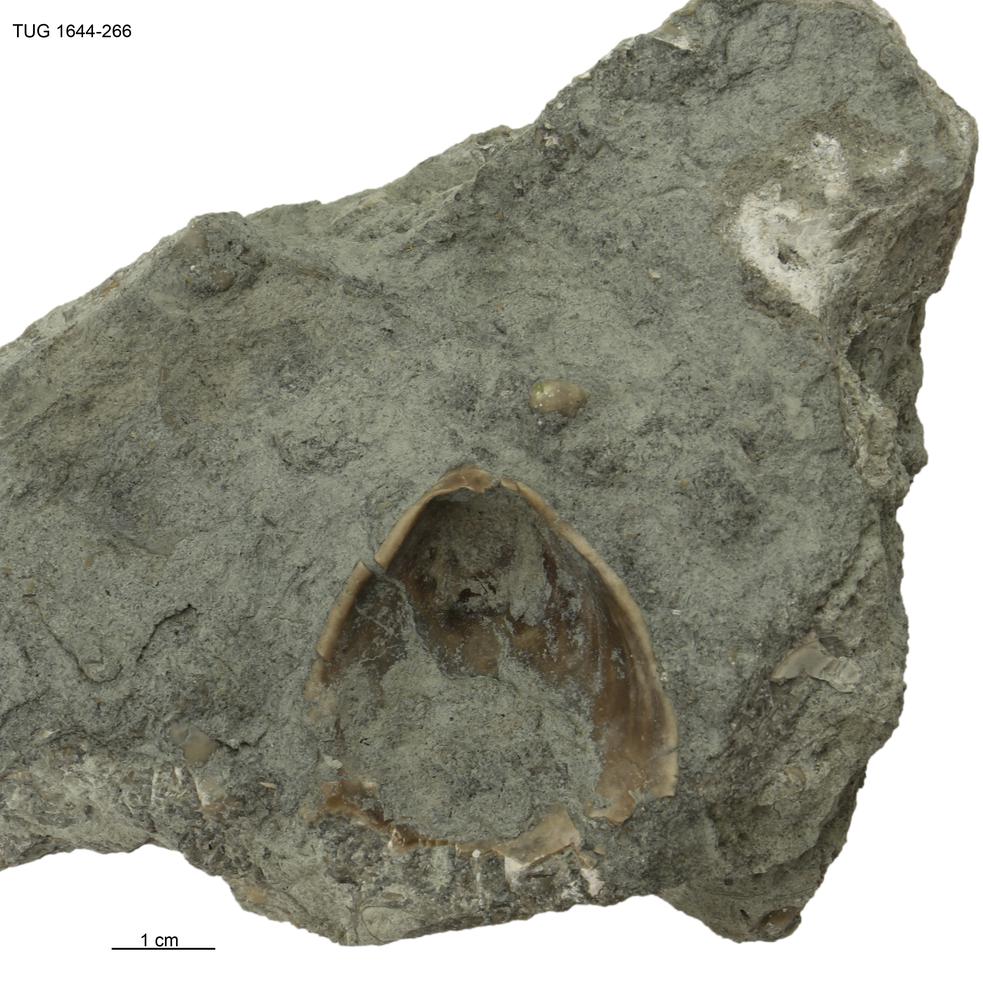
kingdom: Animalia
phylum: Mollusca
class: Monoplacophora
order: Tryblidiida
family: Tryblidiidae
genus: Pilina
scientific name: Pilina
